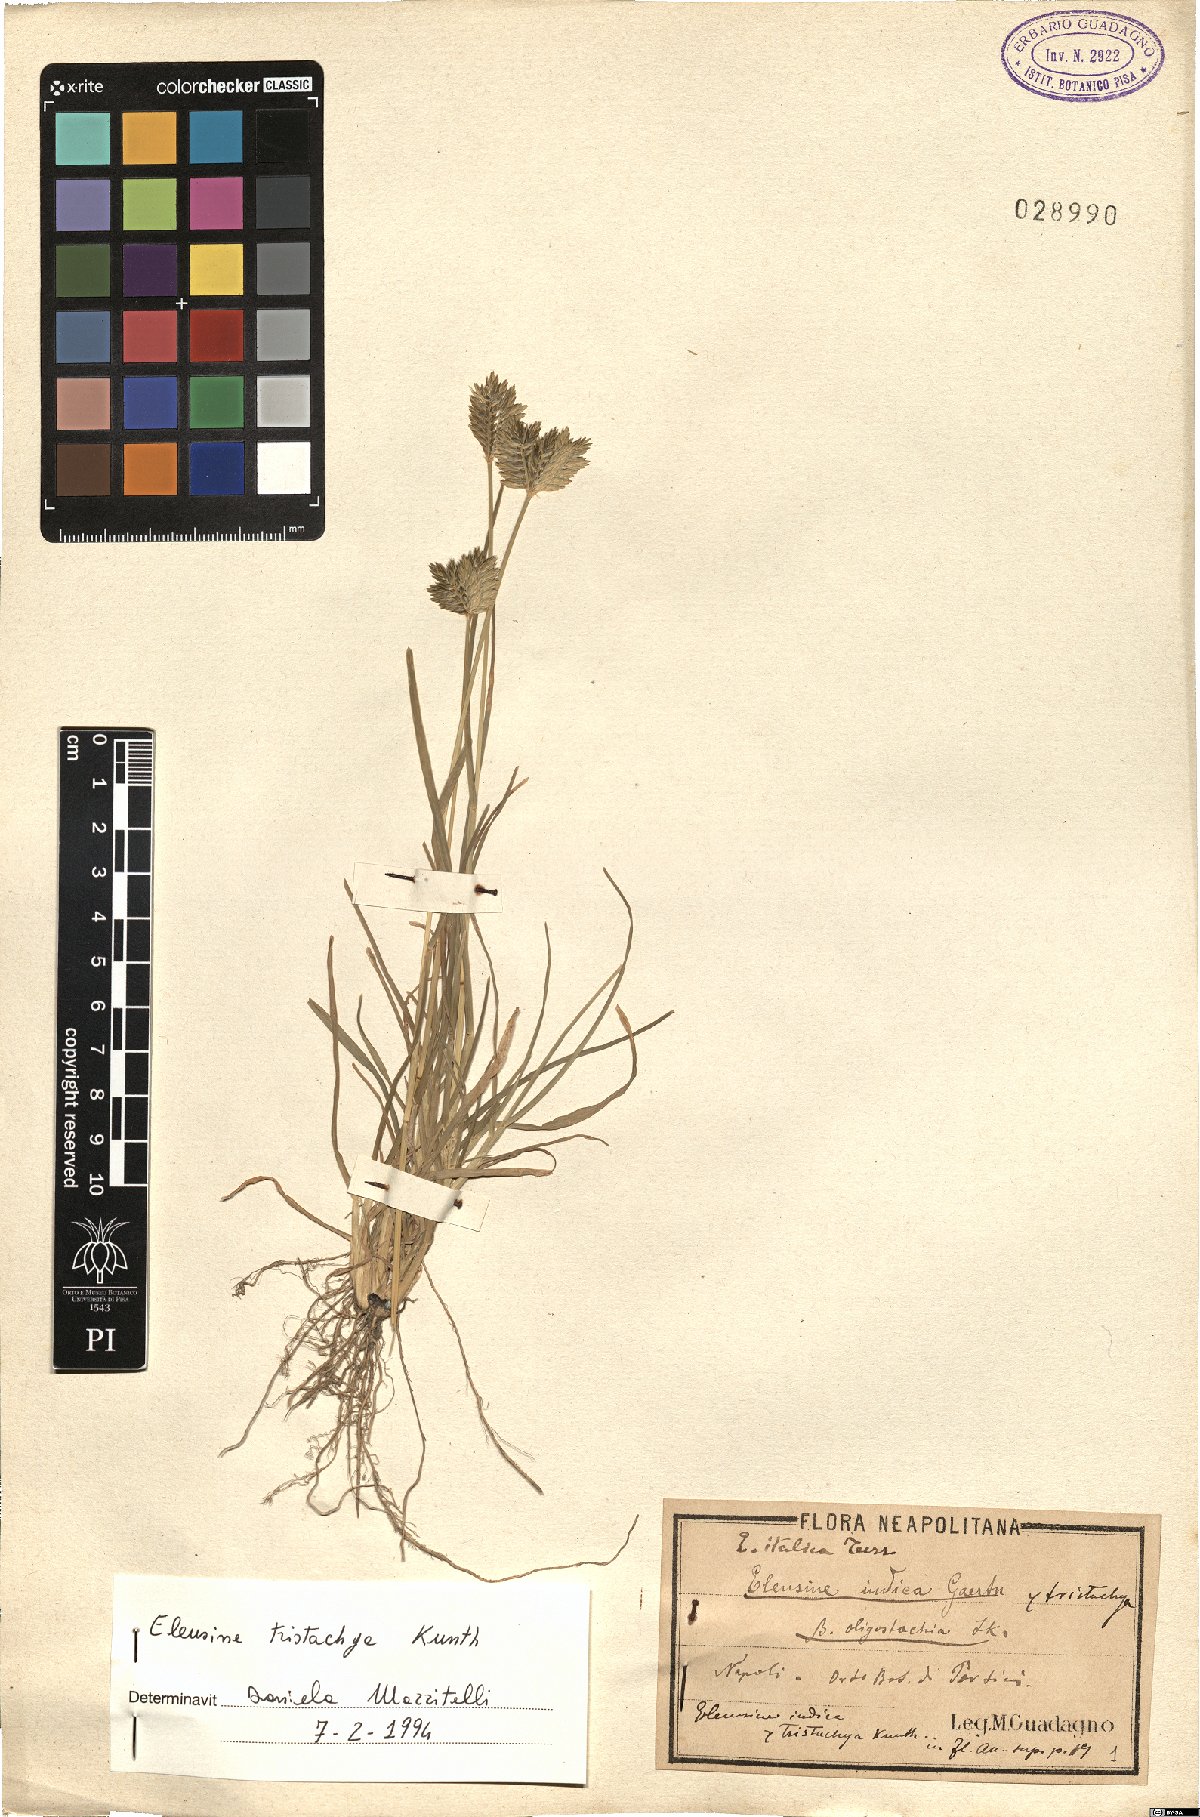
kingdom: Plantae
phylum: Tracheophyta
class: Liliopsida
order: Poales
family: Poaceae
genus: Eleusine
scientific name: Eleusine tristachya
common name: American yard-grass
